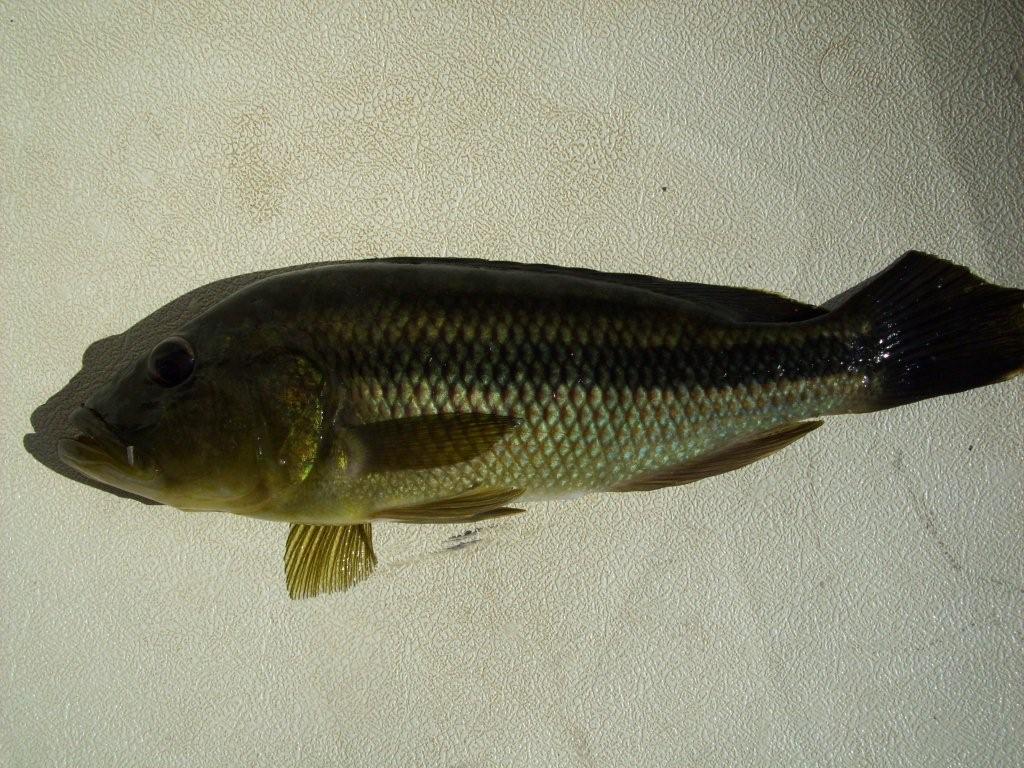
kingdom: Animalia
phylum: Chordata
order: Perciformes
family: Cichlidae
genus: Serranochromis
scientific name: Serranochromis robustus
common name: Yellow-belly bream
